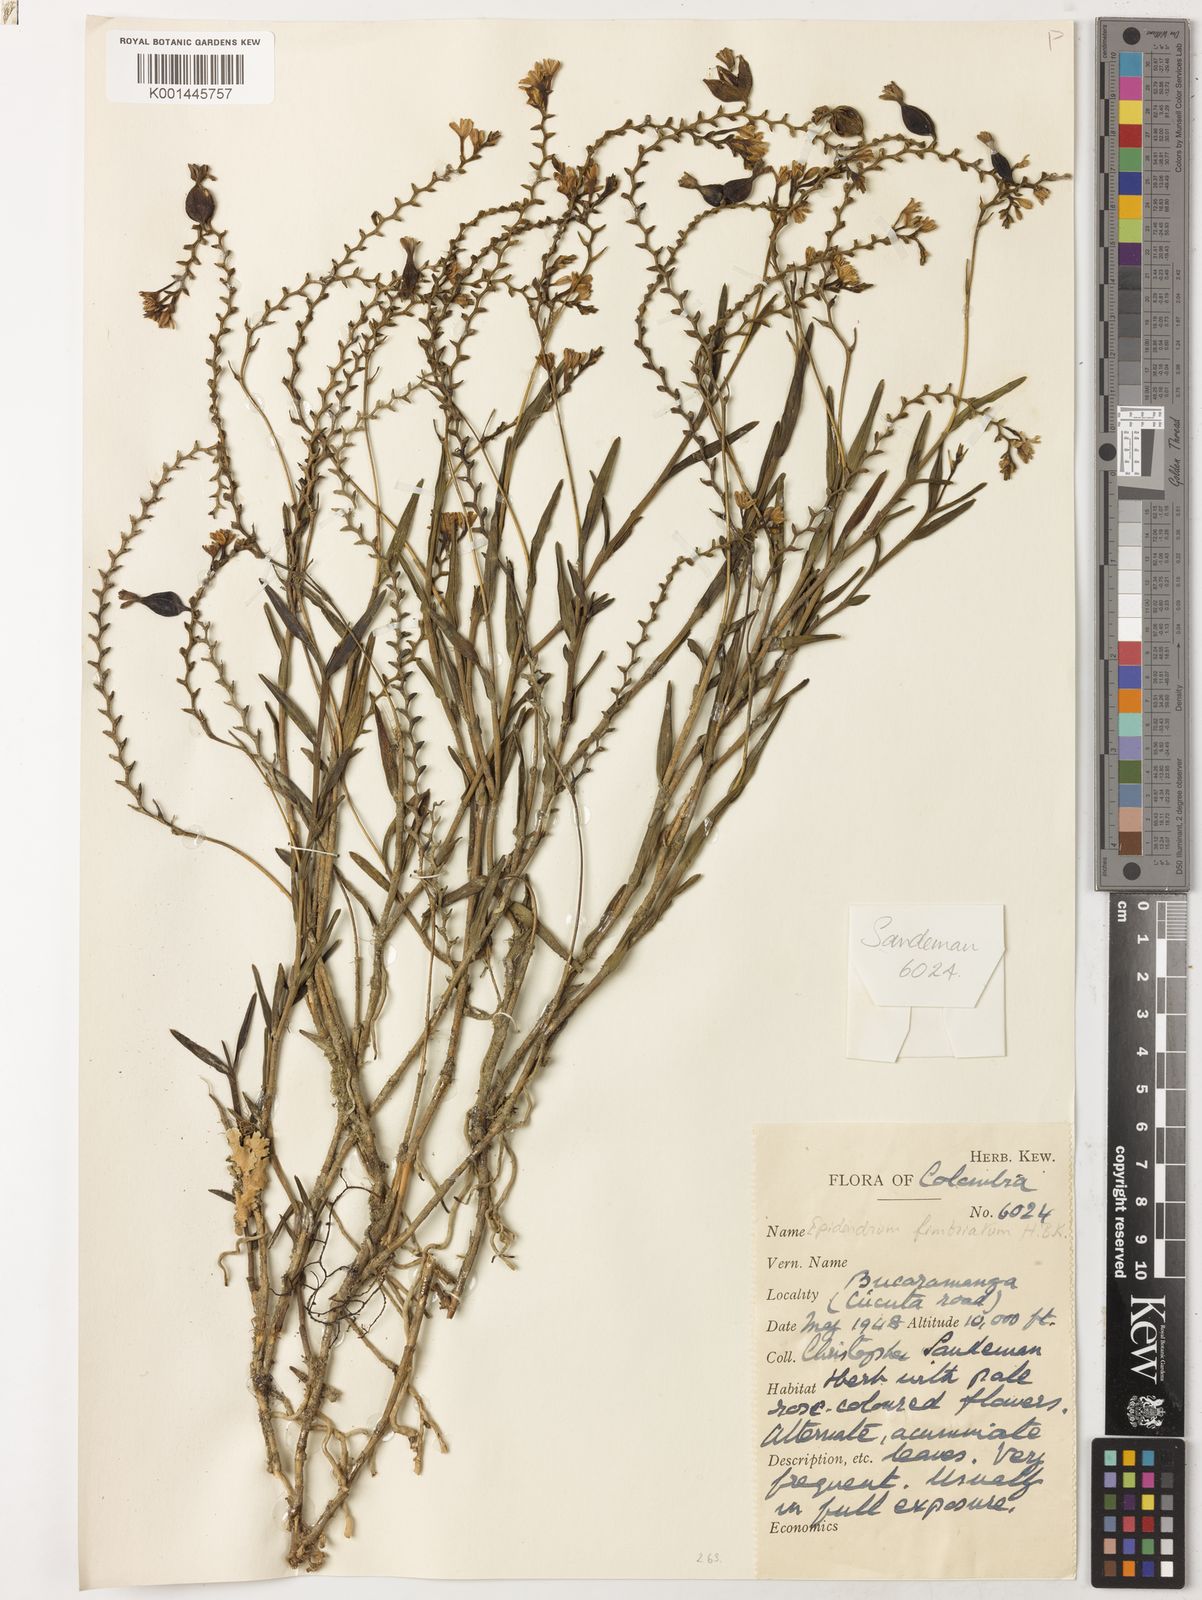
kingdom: Plantae
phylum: Tracheophyta
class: Liliopsida
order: Asparagales
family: Orchidaceae
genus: Epidendrum
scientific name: Epidendrum fimbriatum
